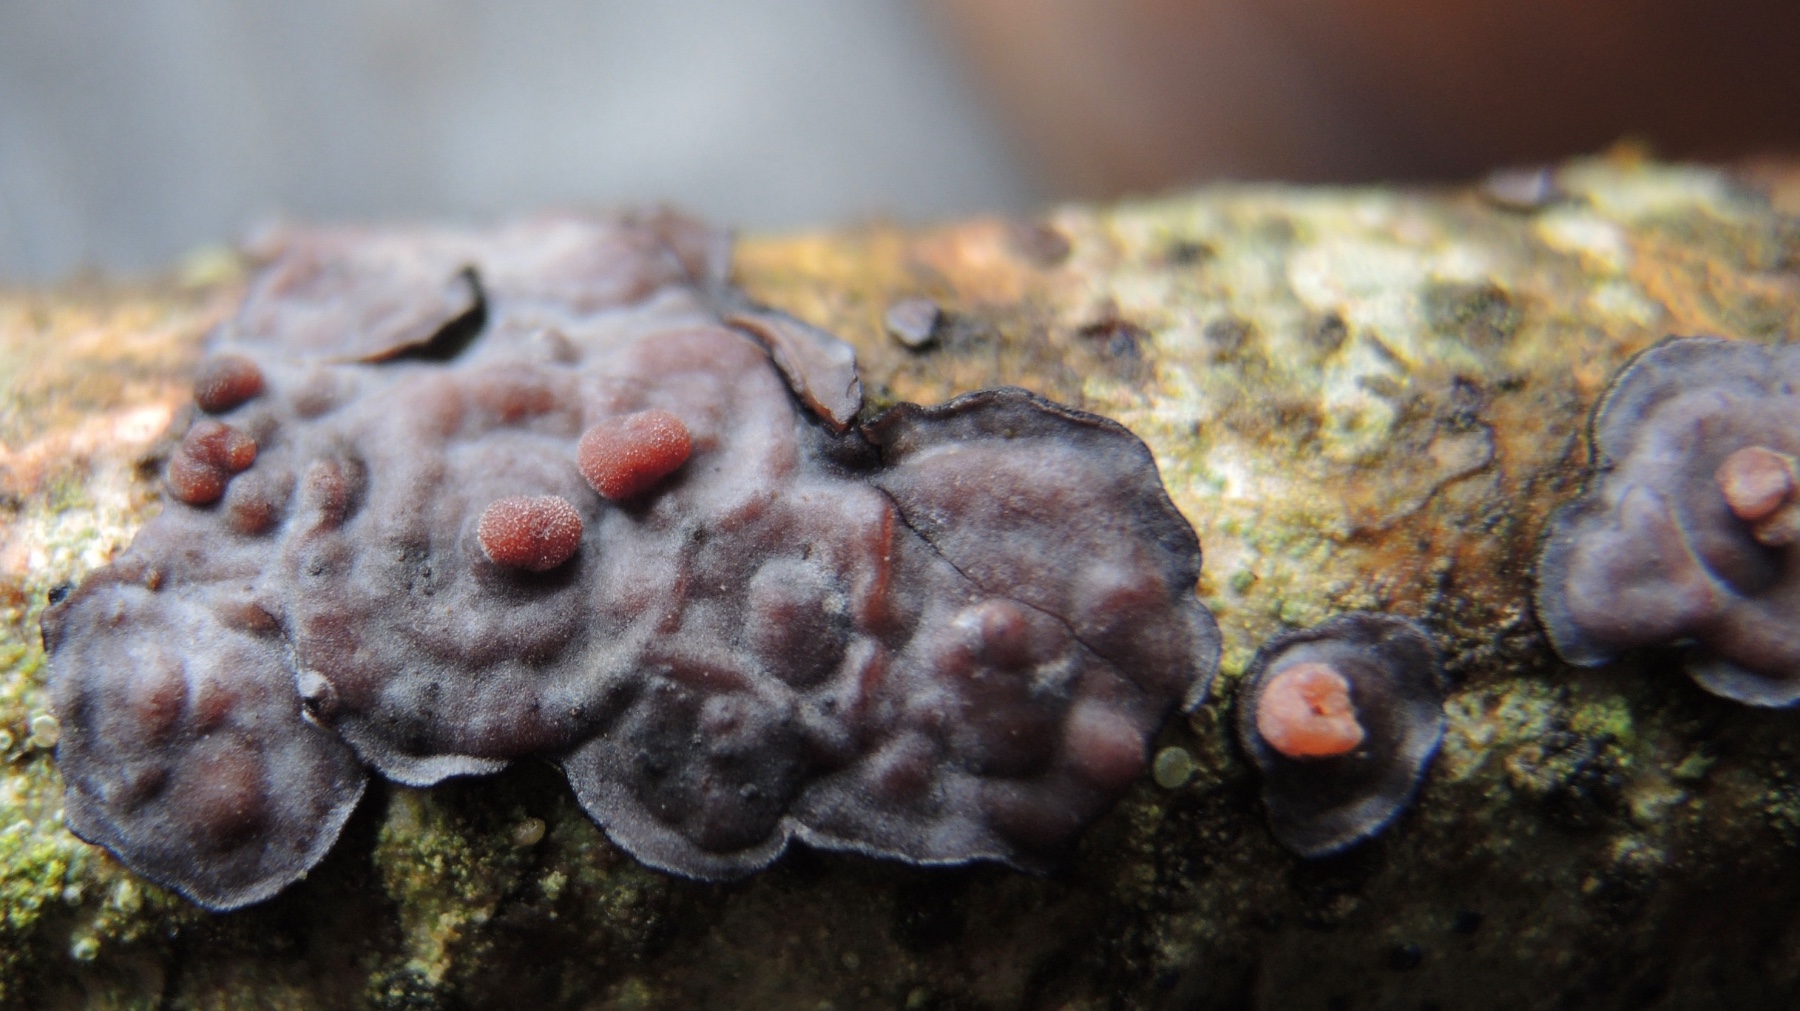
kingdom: Fungi
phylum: Basidiomycota
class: Pucciniomycetes
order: Platygloeales
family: Platygloeaceae
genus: Platygloea
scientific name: Platygloea
